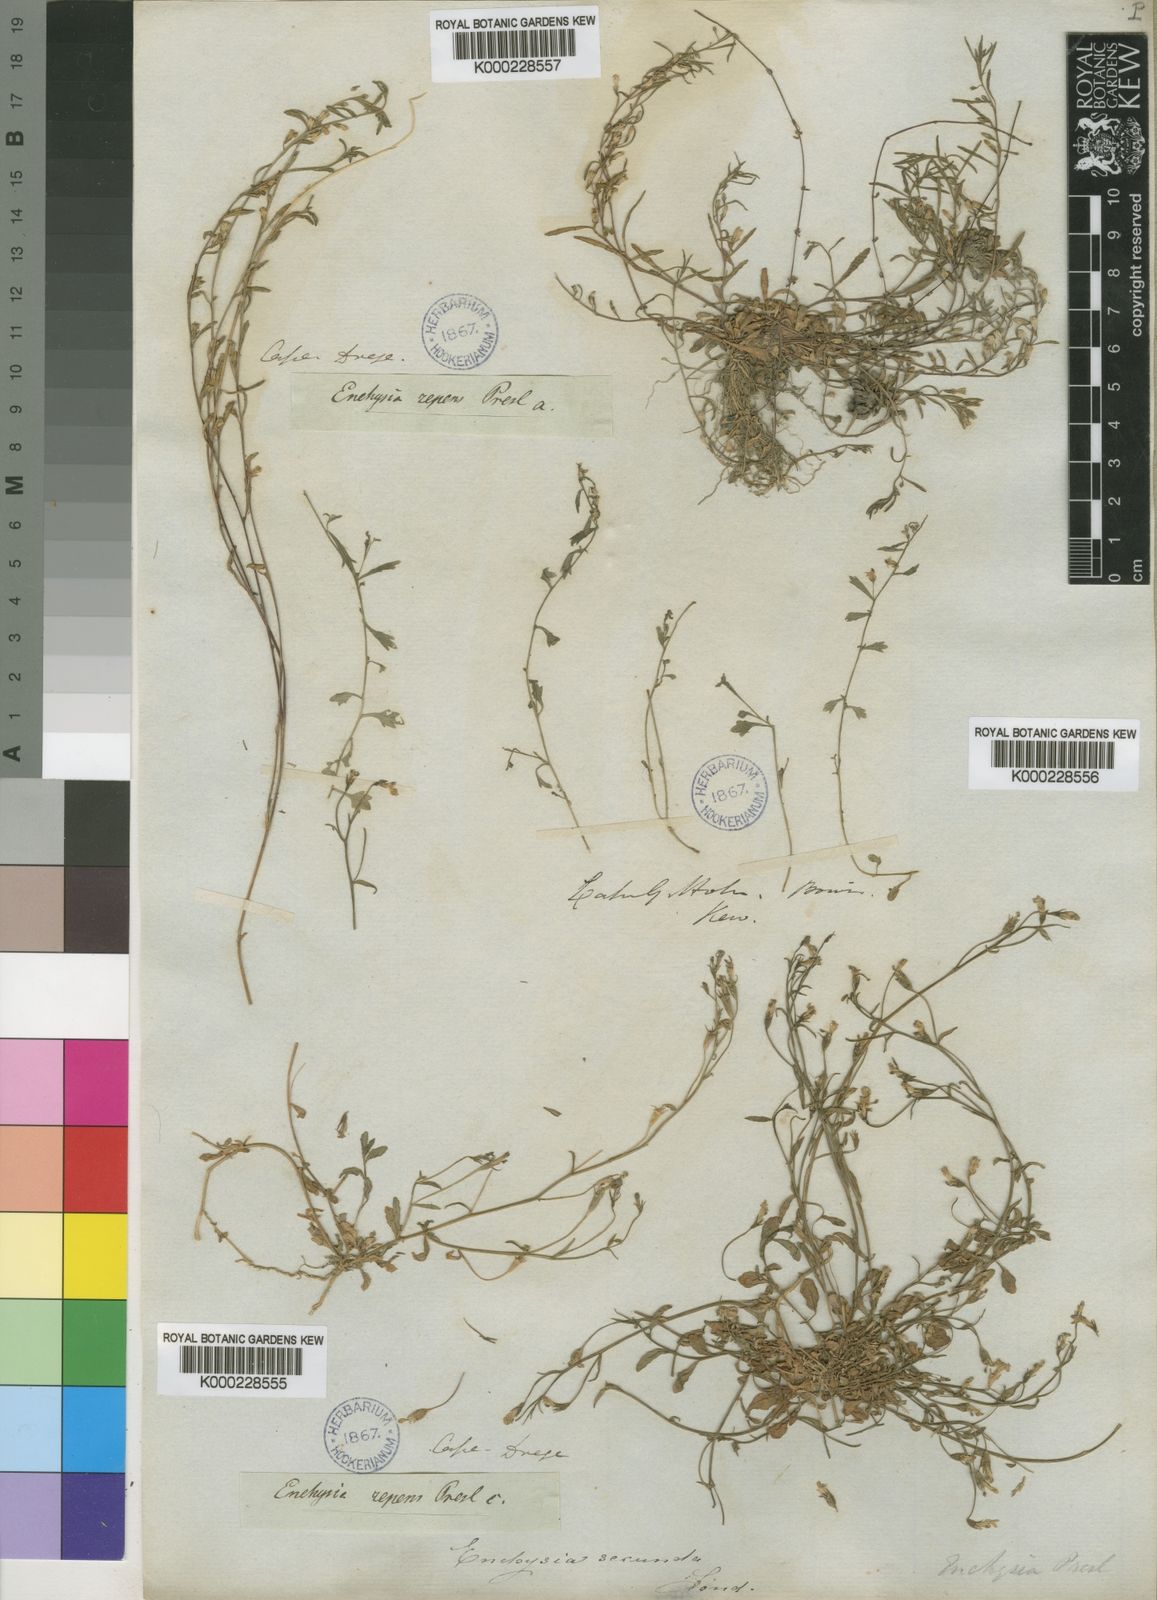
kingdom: Plantae
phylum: Tracheophyta
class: Magnoliopsida
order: Asterales
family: Campanulaceae
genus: Wimmerella
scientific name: Wimmerella
